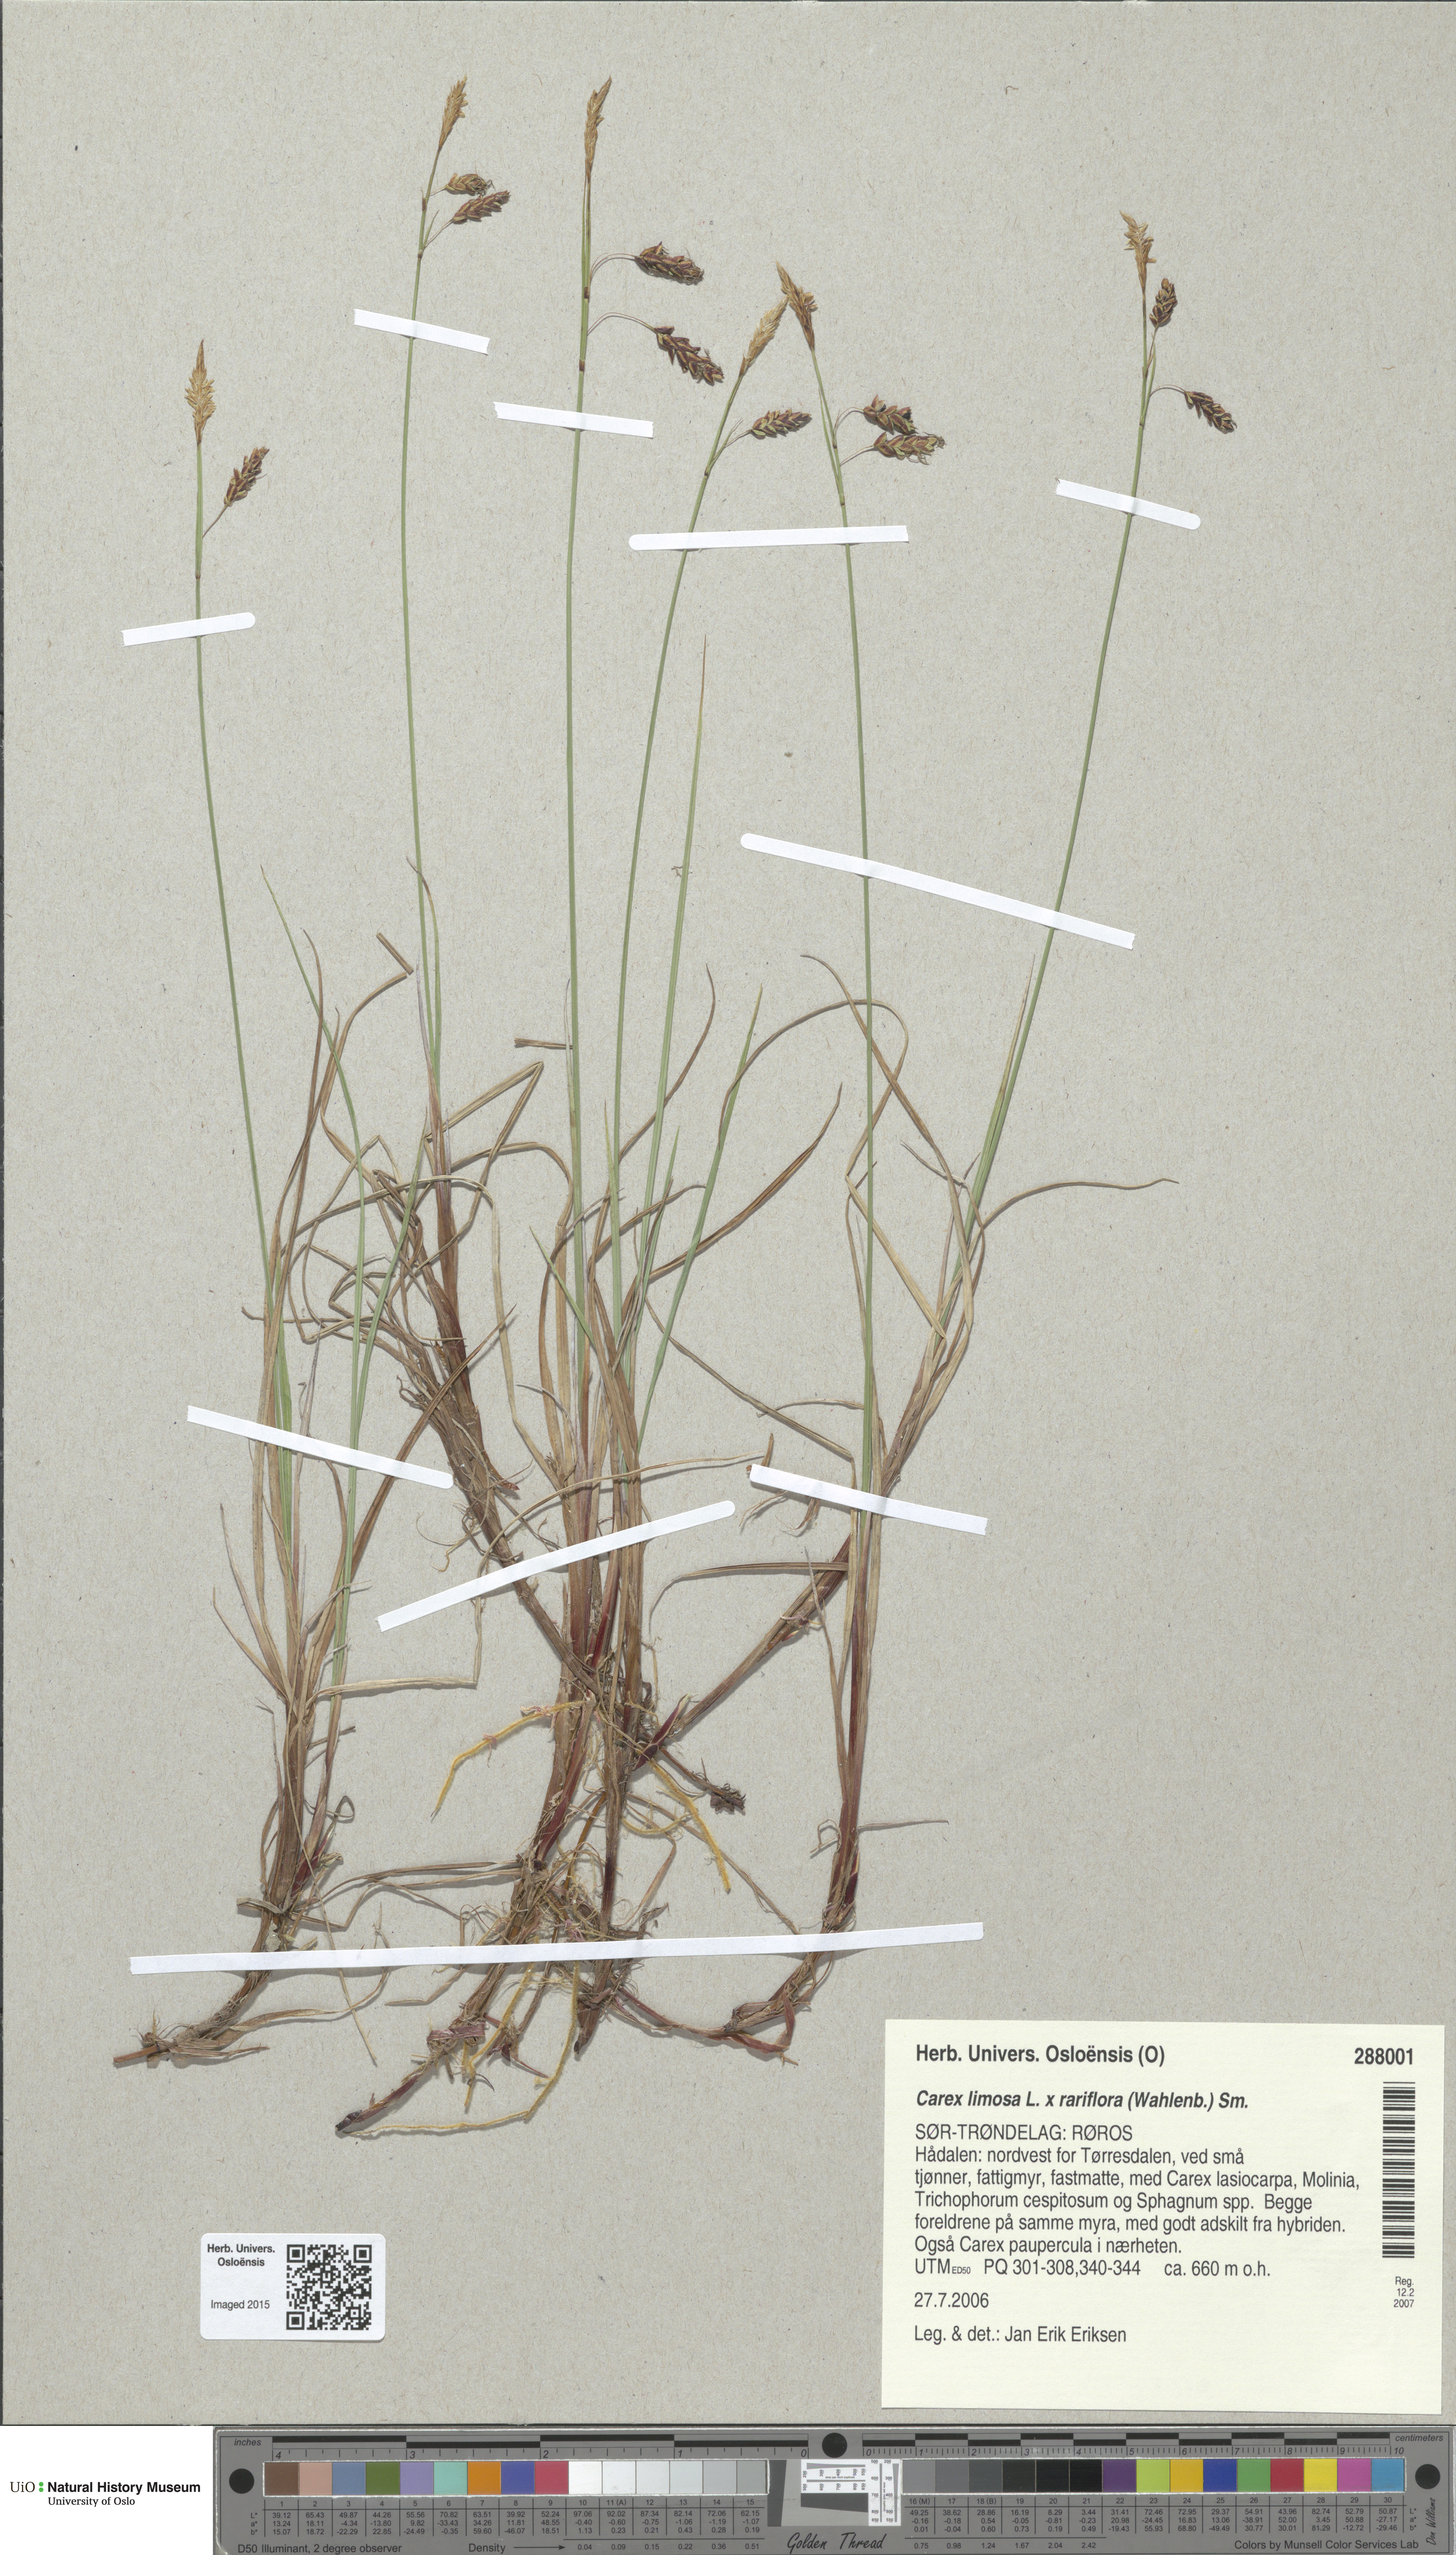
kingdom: Plantae
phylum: Tracheophyta
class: Liliopsida
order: Poales
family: Cyperaceae
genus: Carex
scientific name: Carex
